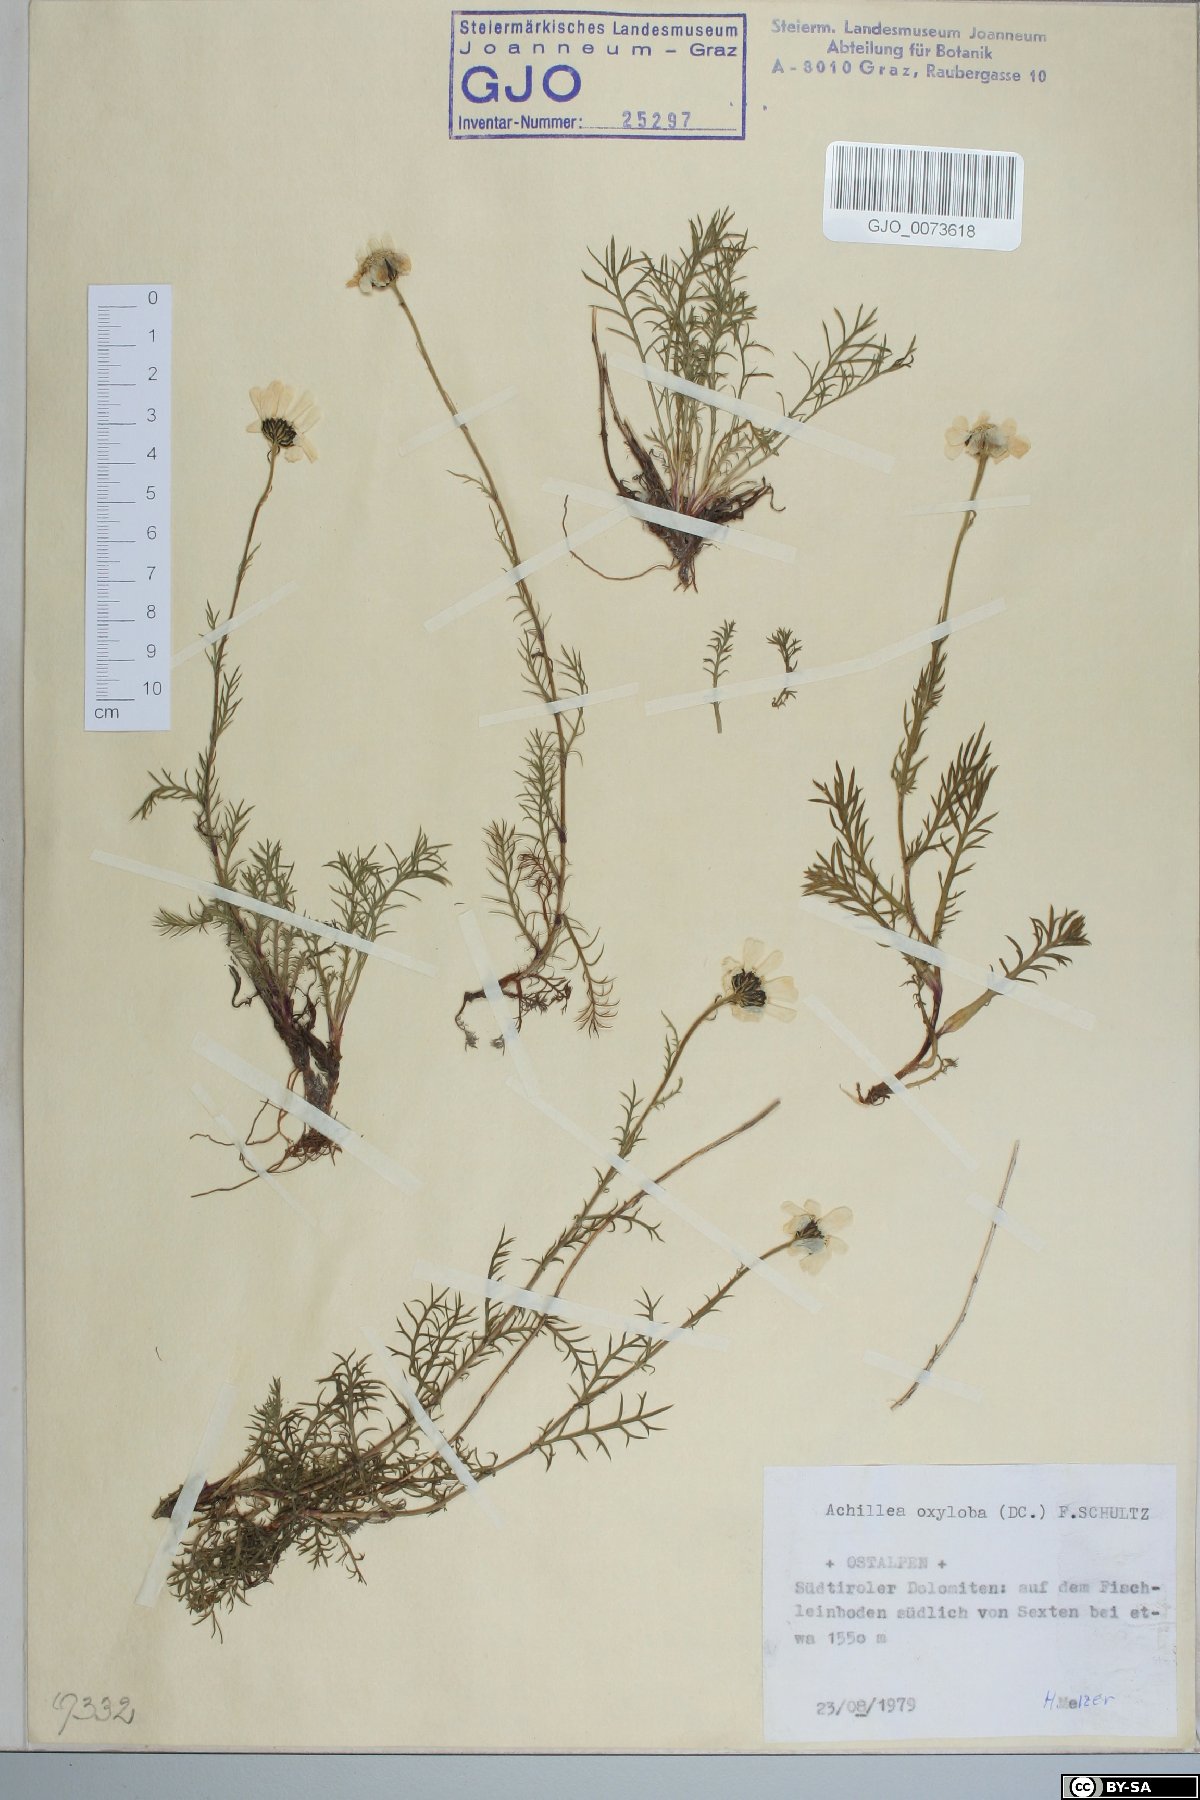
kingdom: Plantae
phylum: Tracheophyta
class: Magnoliopsida
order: Asterales
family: Asteraceae
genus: Achillea
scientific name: Achillea oxyloba
